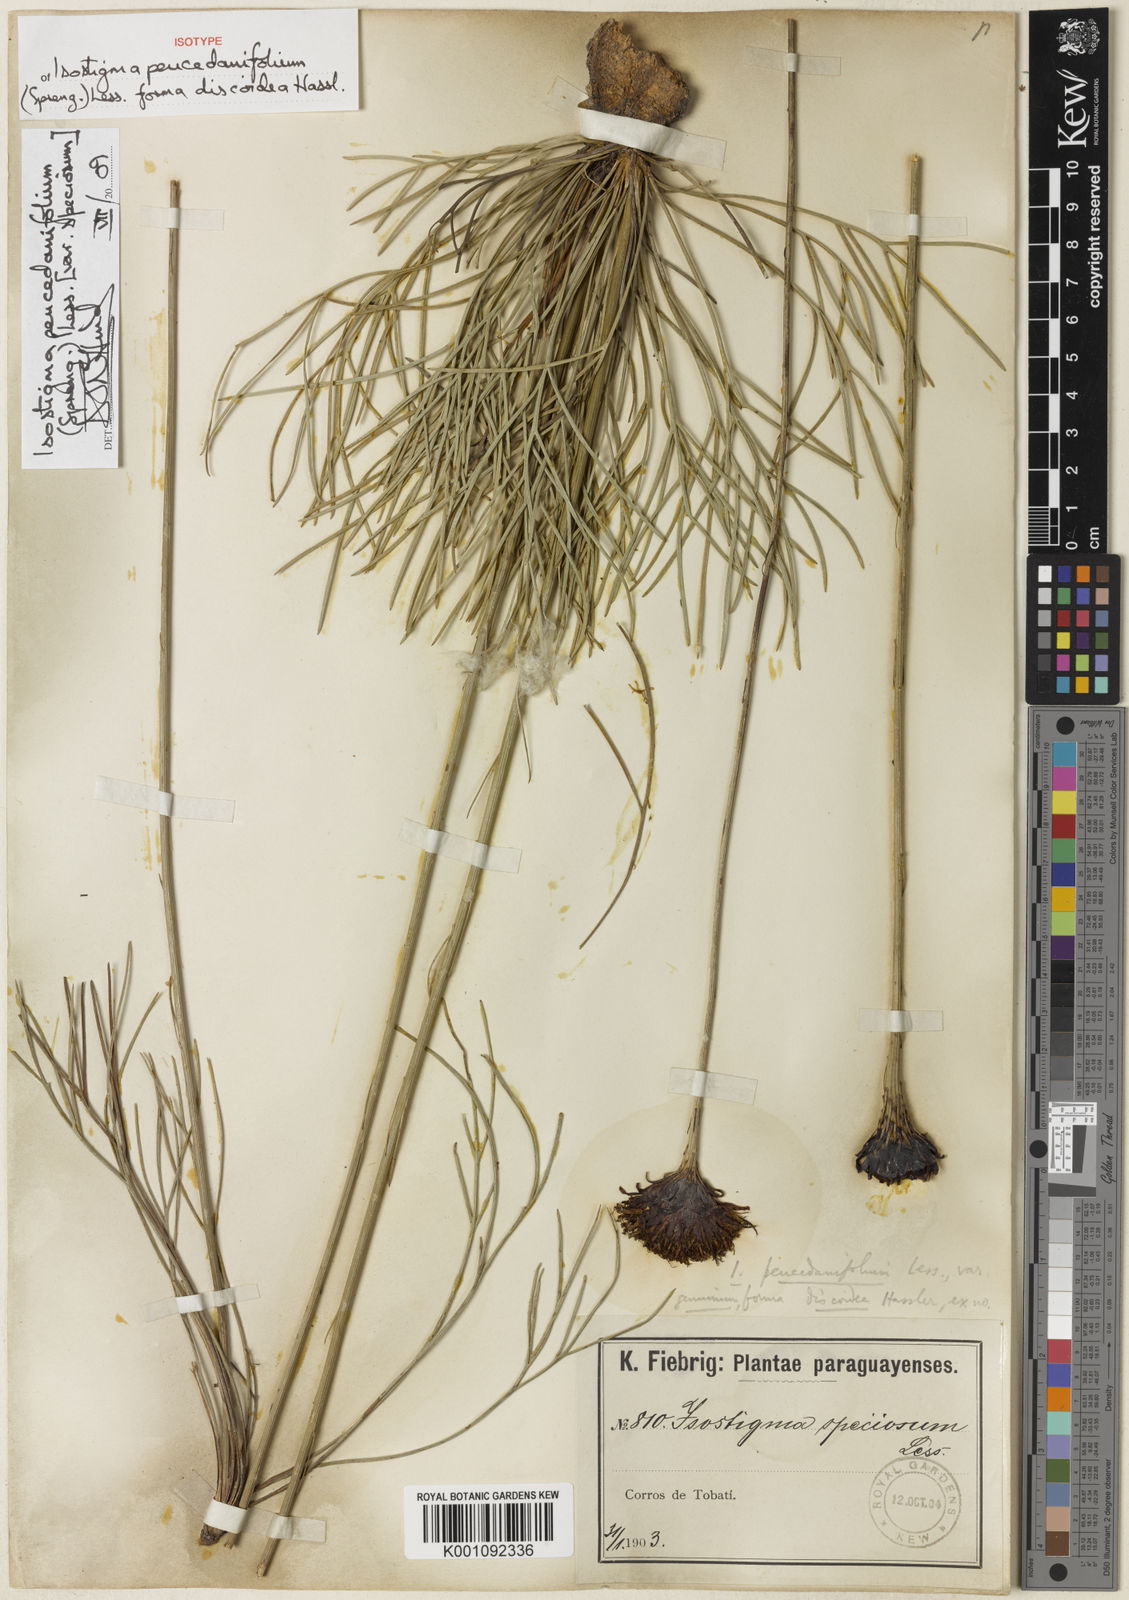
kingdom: Plantae
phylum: Tracheophyta
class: Magnoliopsida
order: Asterales
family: Asteraceae
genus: Isostigma
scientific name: Isostigma peucedanifolium
